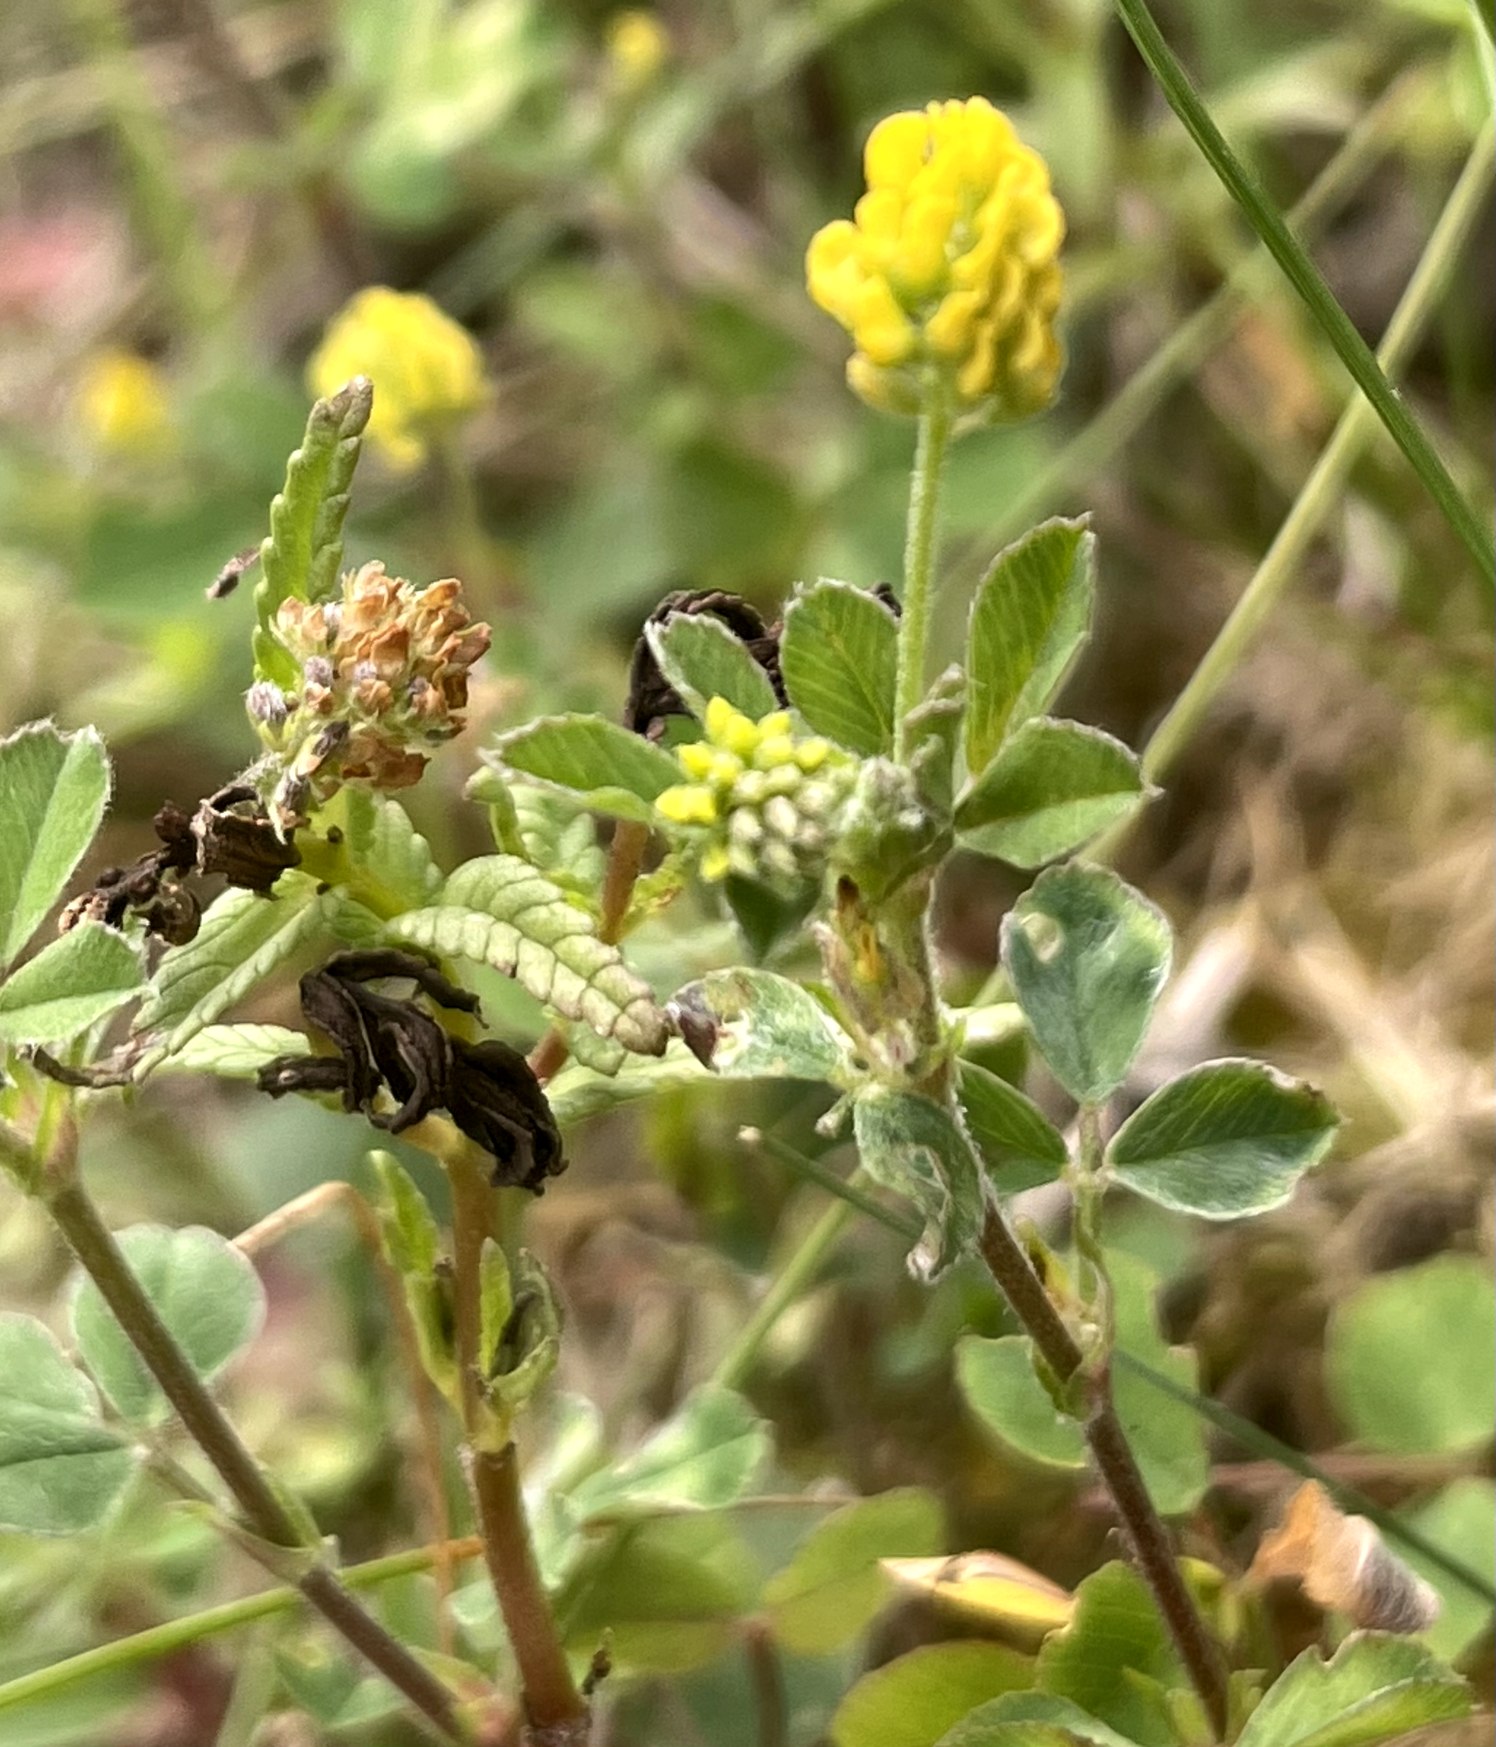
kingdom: Plantae
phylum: Tracheophyta
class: Magnoliopsida
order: Fabales
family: Fabaceae
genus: Medicago
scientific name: Medicago lupulina
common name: Humle-sneglebælg
